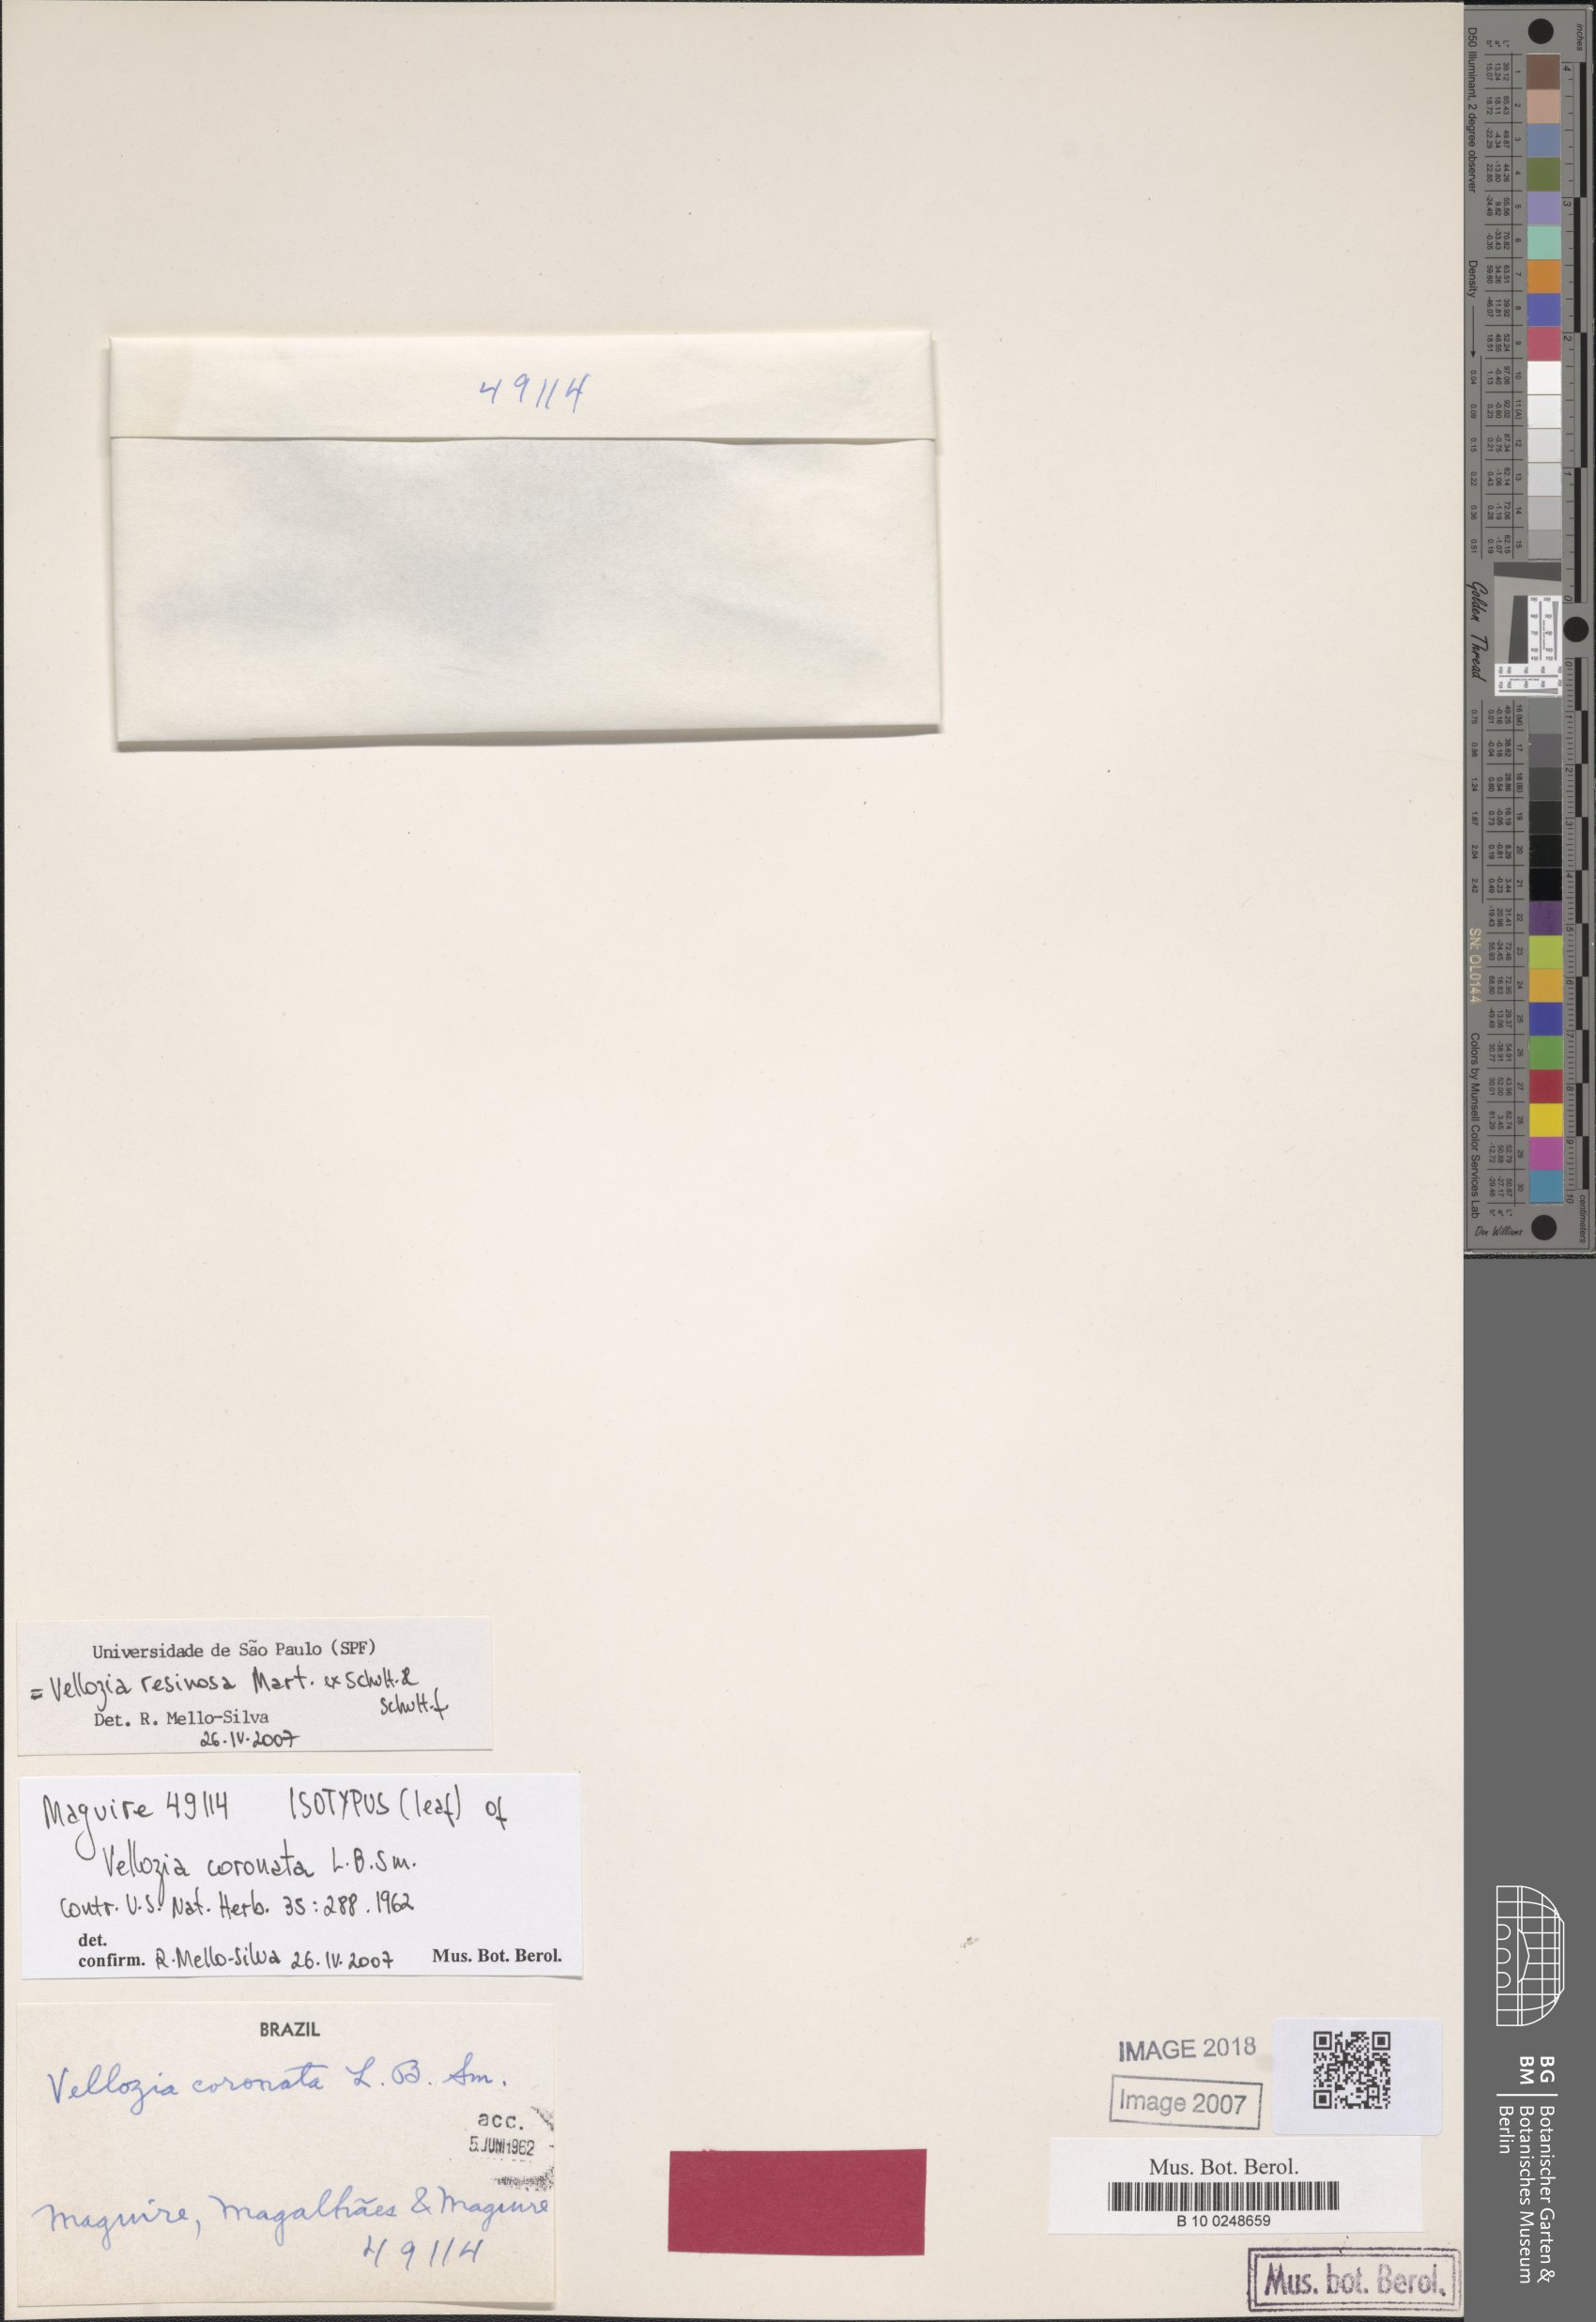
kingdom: Plantae
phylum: Tracheophyta
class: Liliopsida
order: Pandanales
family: Velloziaceae
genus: Vellozia
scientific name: Vellozia resinosa
